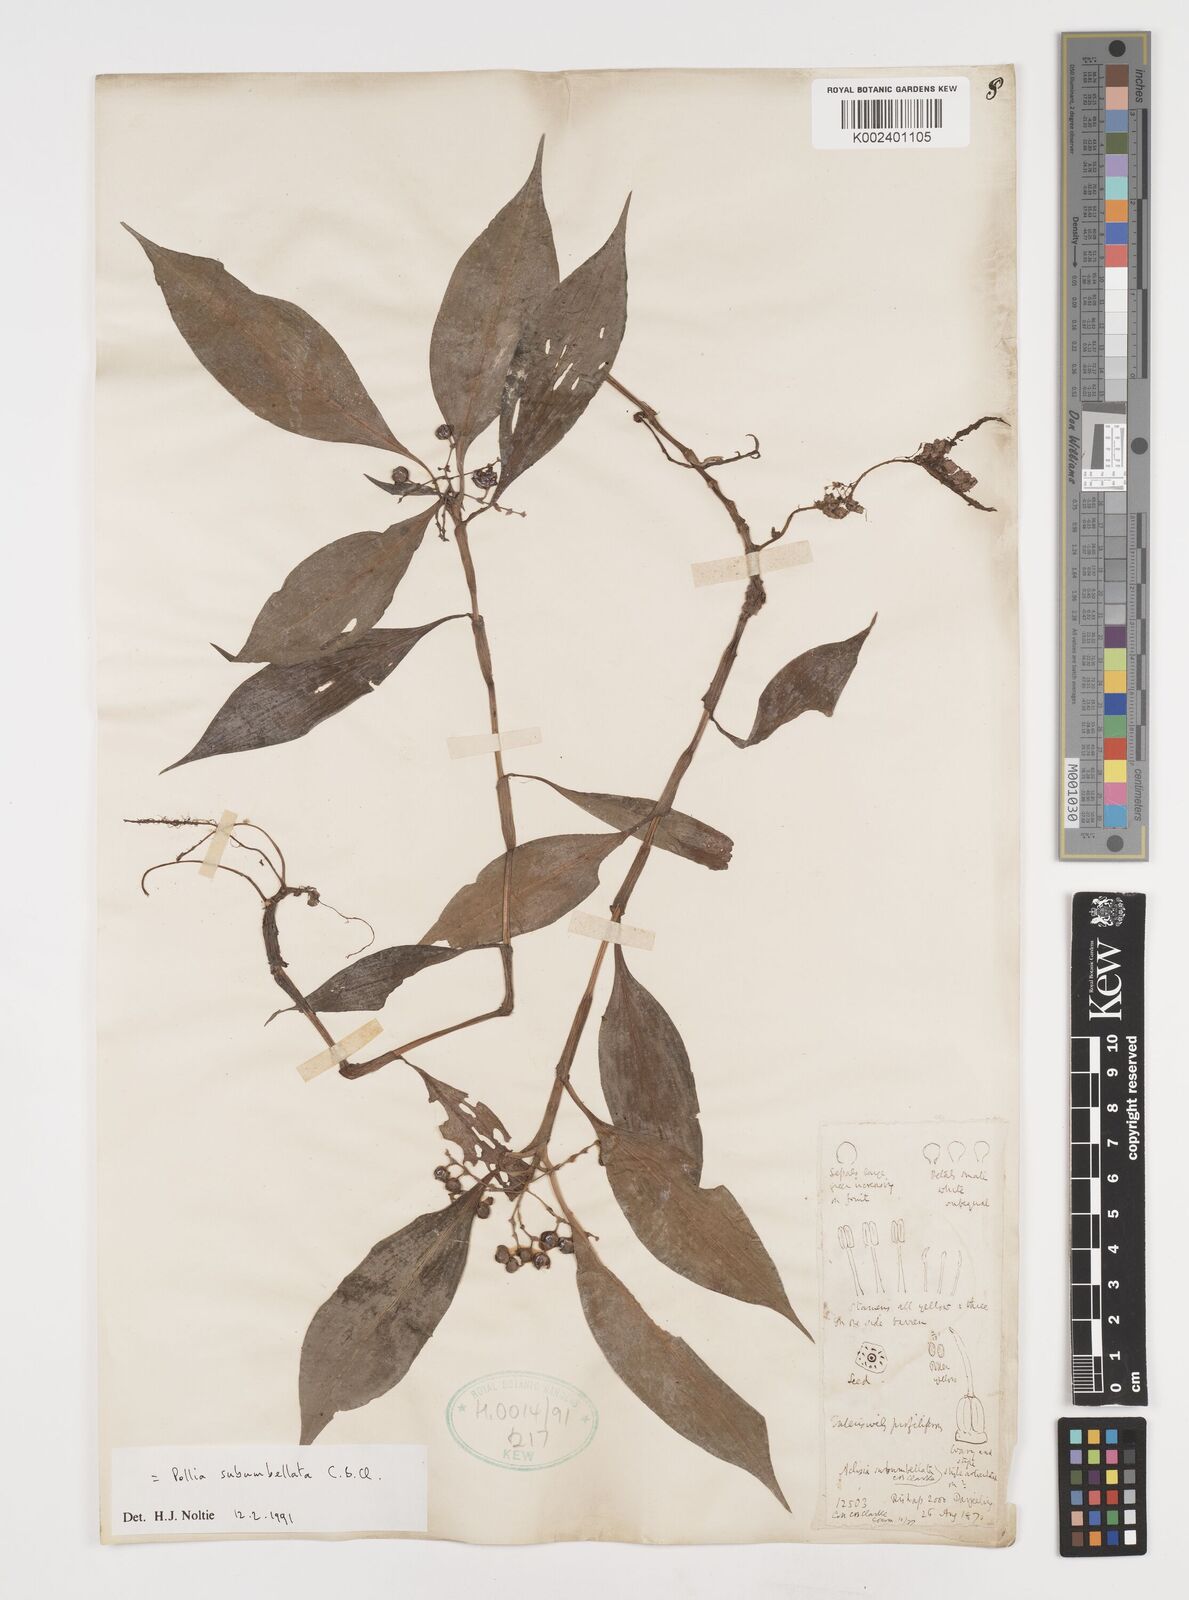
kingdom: Plantae
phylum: Tracheophyta
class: Liliopsida
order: Commelinales
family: Commelinaceae
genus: Pollia
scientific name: Pollia subumbellata
